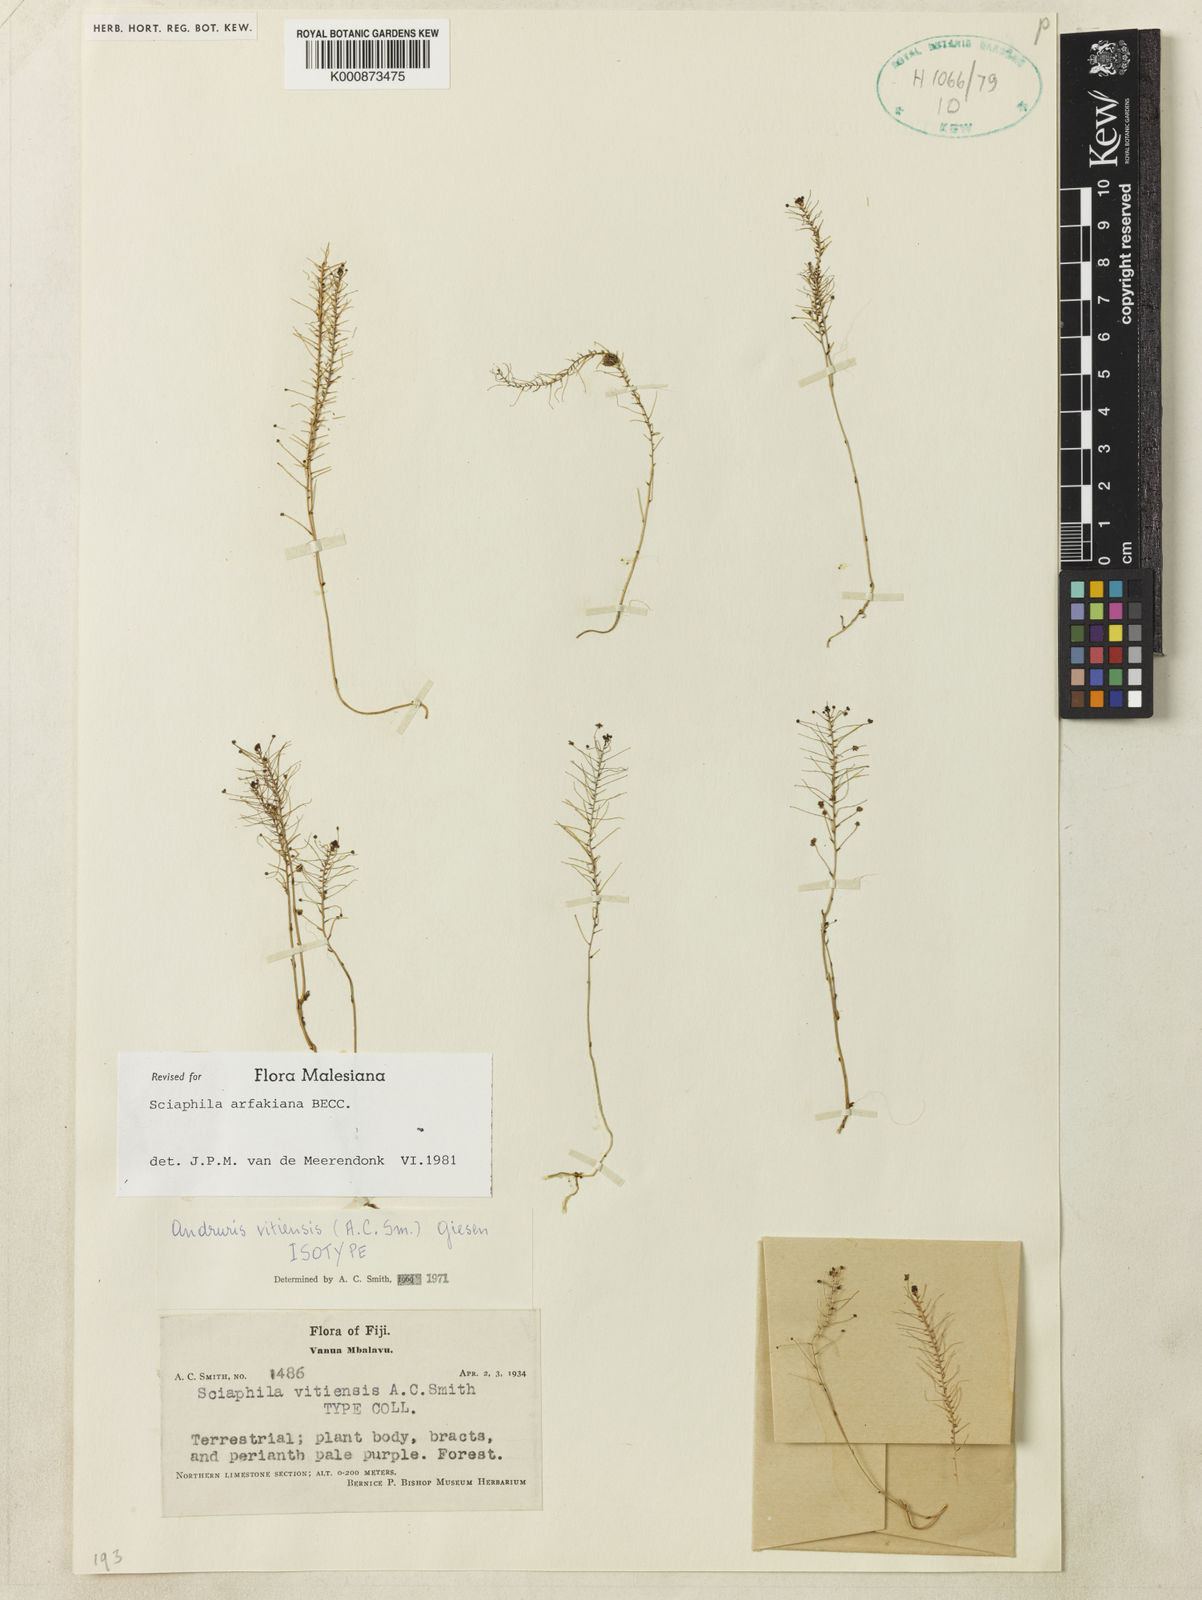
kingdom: Plantae
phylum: Tracheophyta
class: Liliopsida
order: Pandanales
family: Triuridaceae
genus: Sciaphila
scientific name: Sciaphila arfakiana
